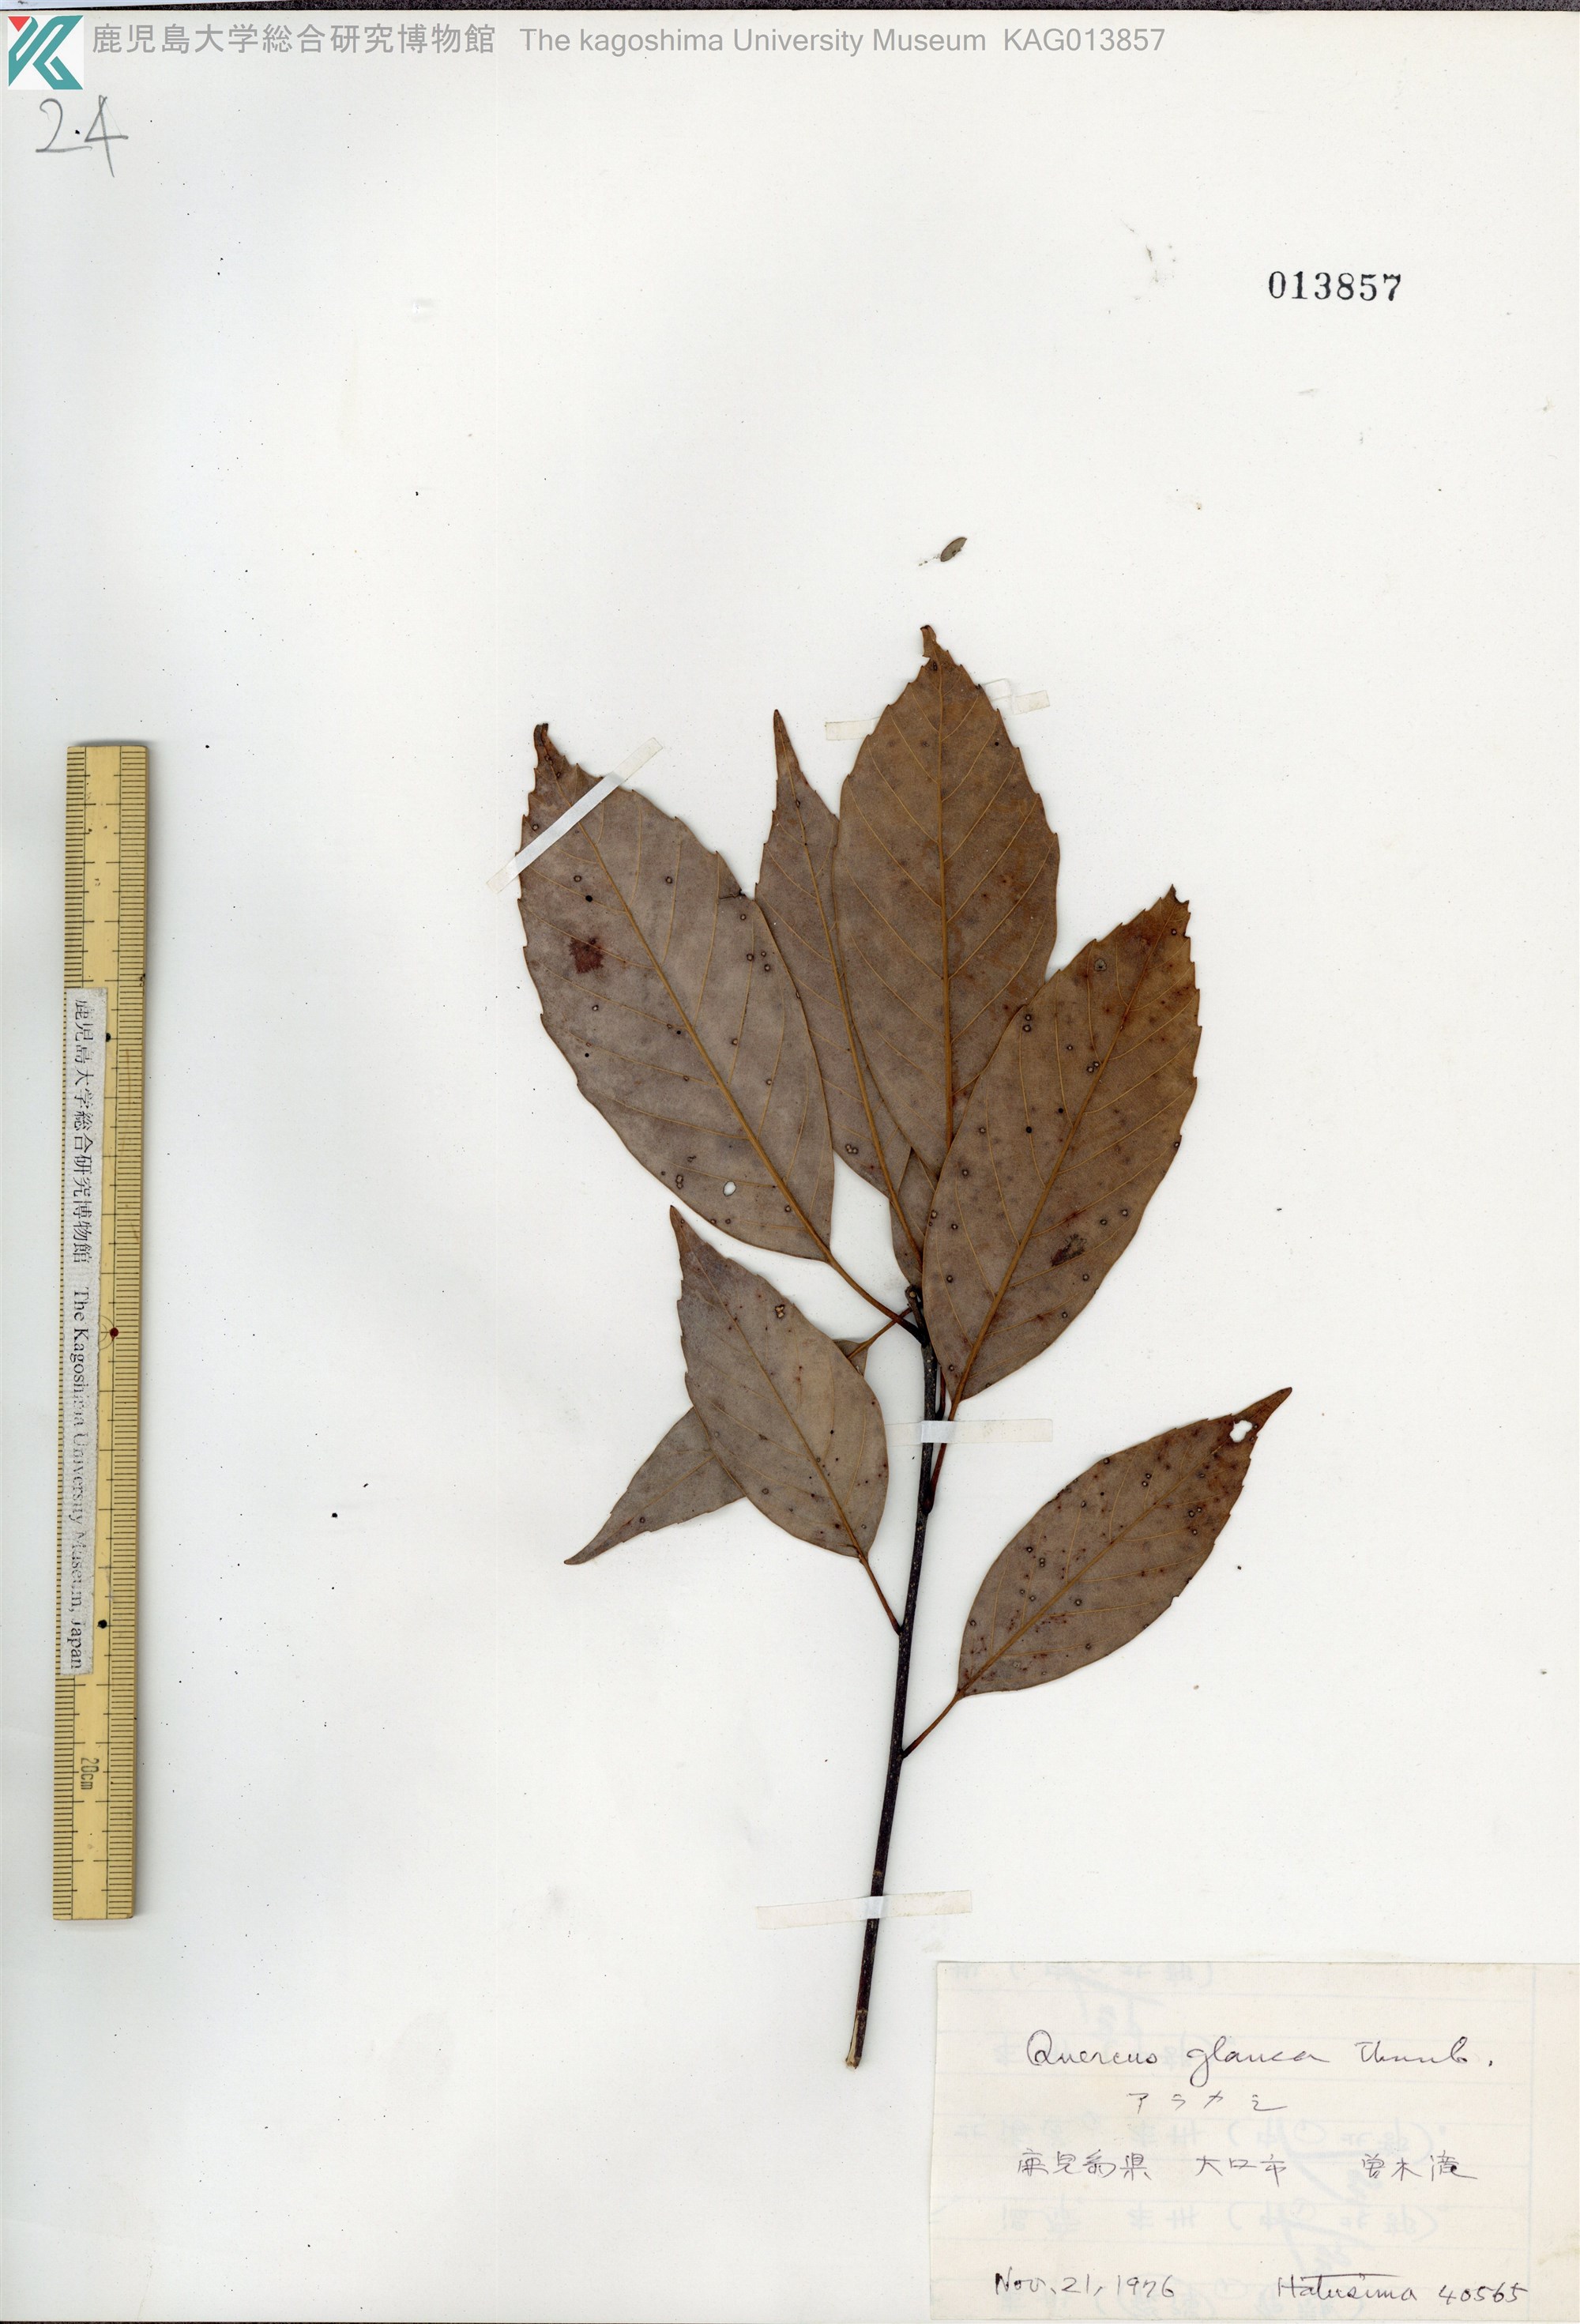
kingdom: Plantae
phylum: Tracheophyta
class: Magnoliopsida
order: Fagales
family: Fagaceae
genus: Quercus
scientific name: Quercus glauca
